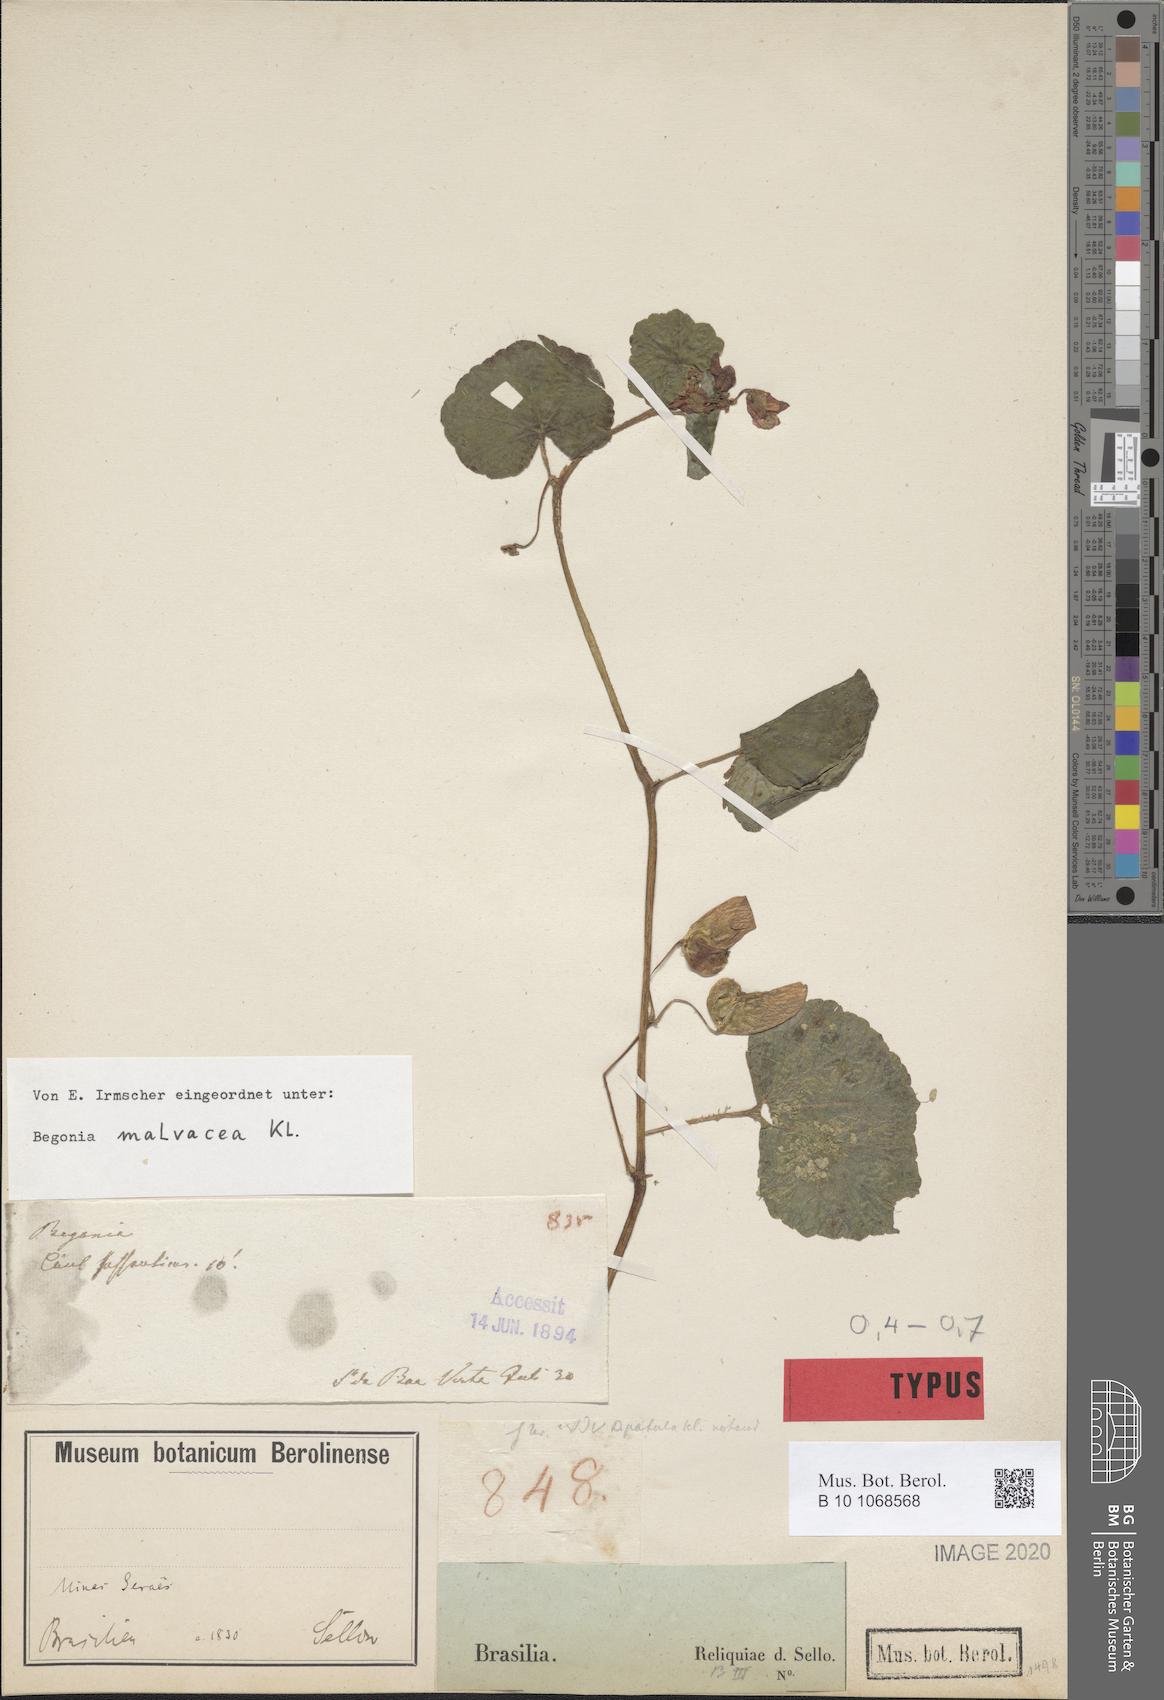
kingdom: Plantae
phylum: Tracheophyta
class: Magnoliopsida
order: Cucurbitales
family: Begoniaceae
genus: Begonia
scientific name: Begonia fischeri
